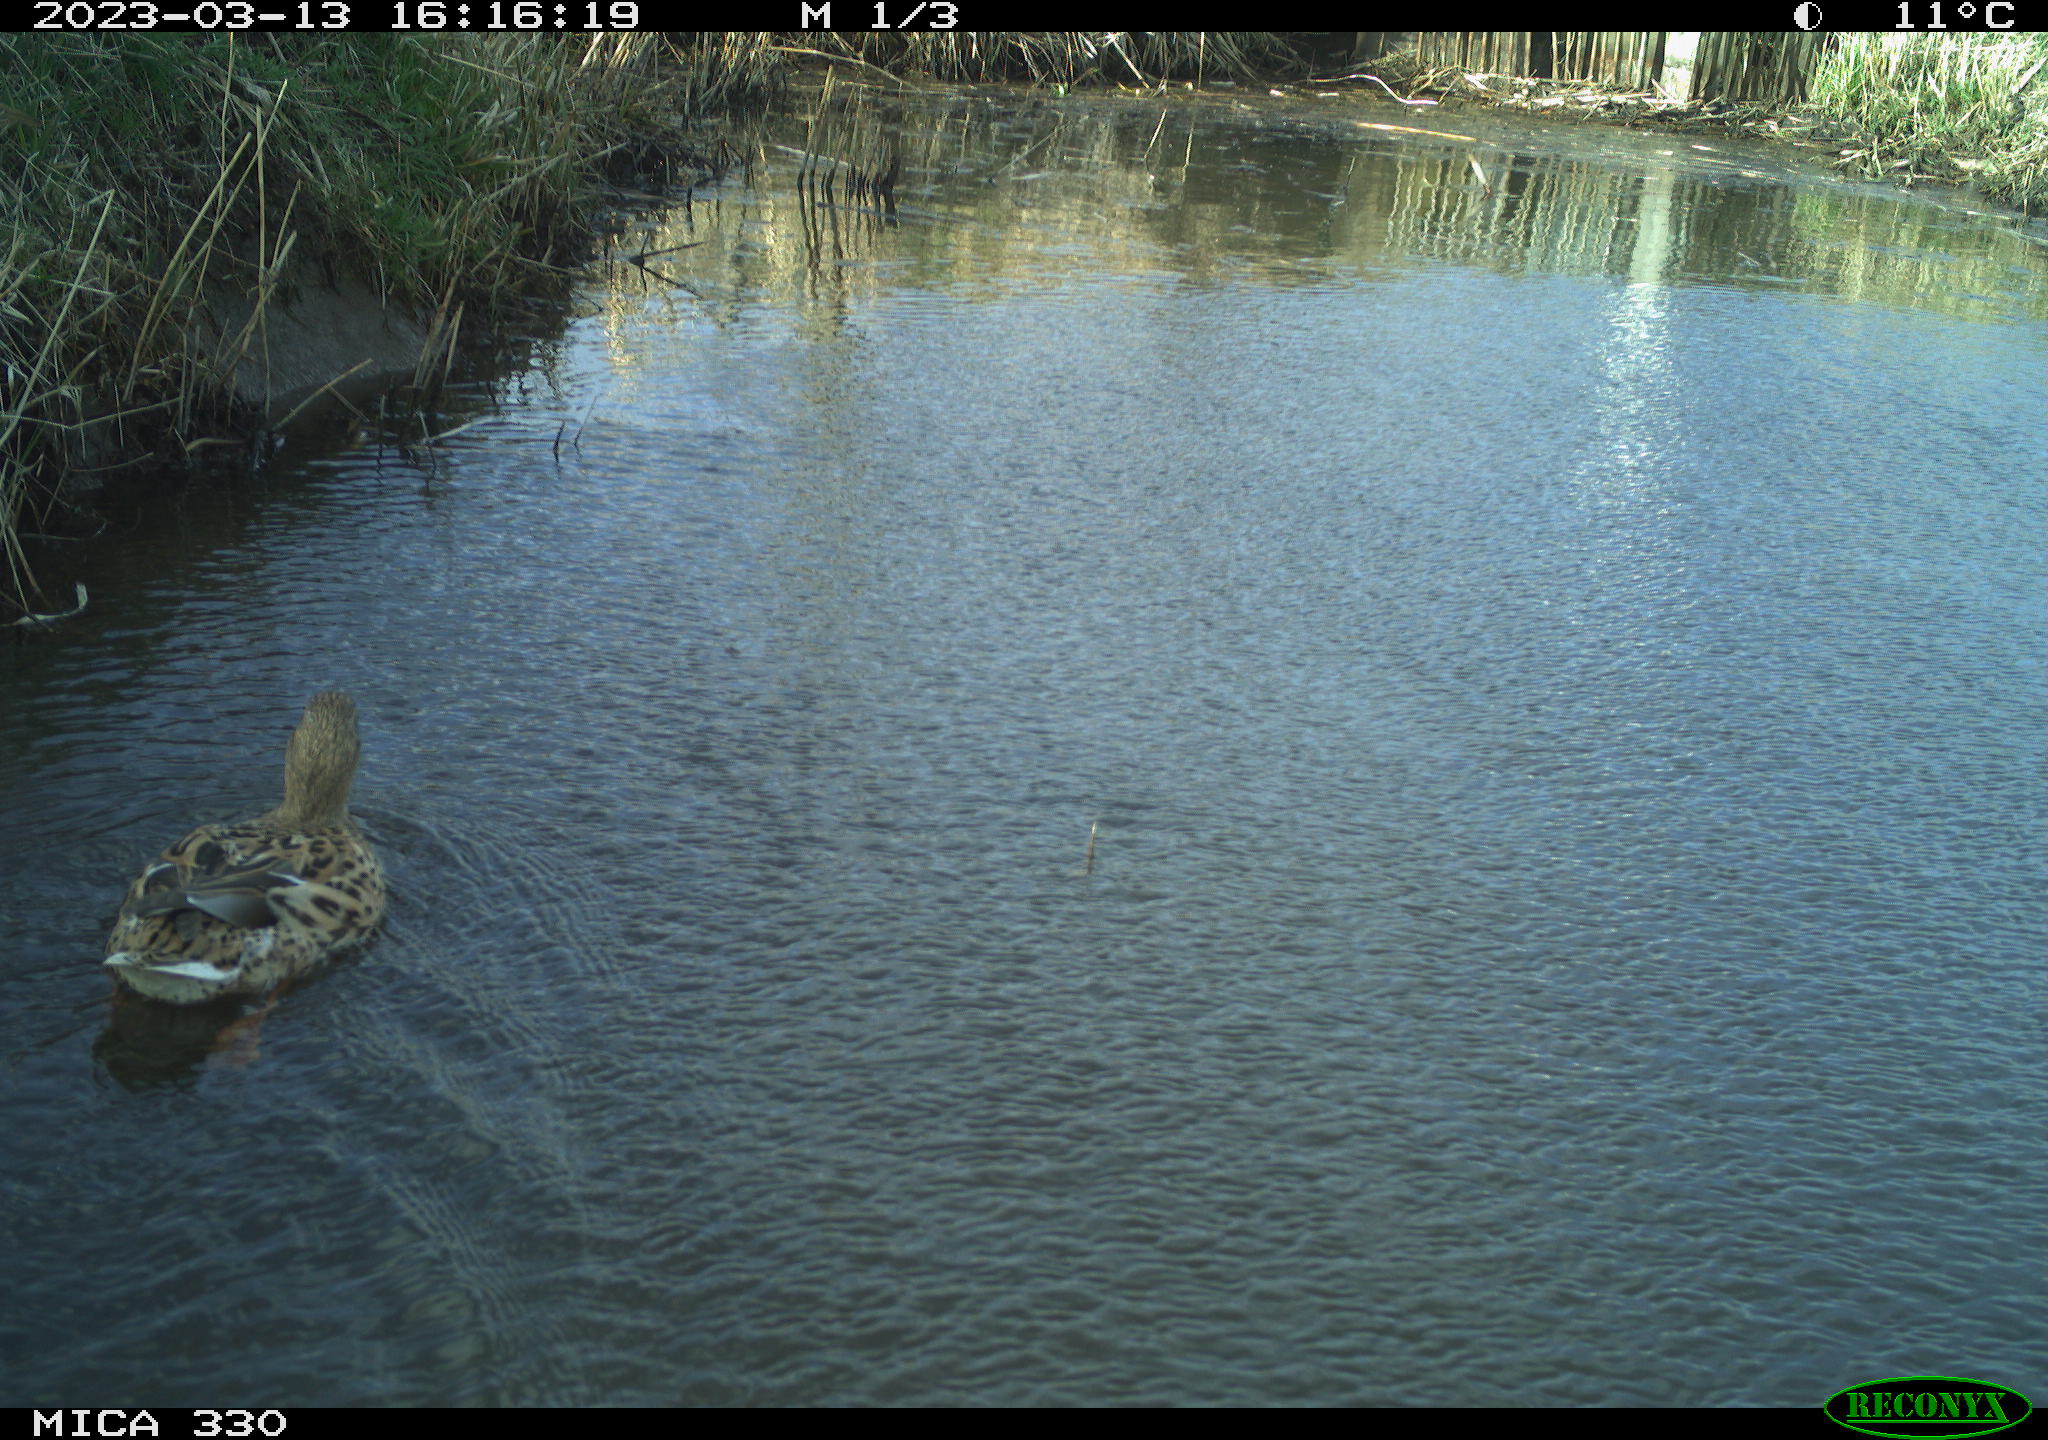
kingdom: Animalia
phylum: Chordata
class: Aves
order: Anseriformes
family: Anatidae
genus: Anas
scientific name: Anas
